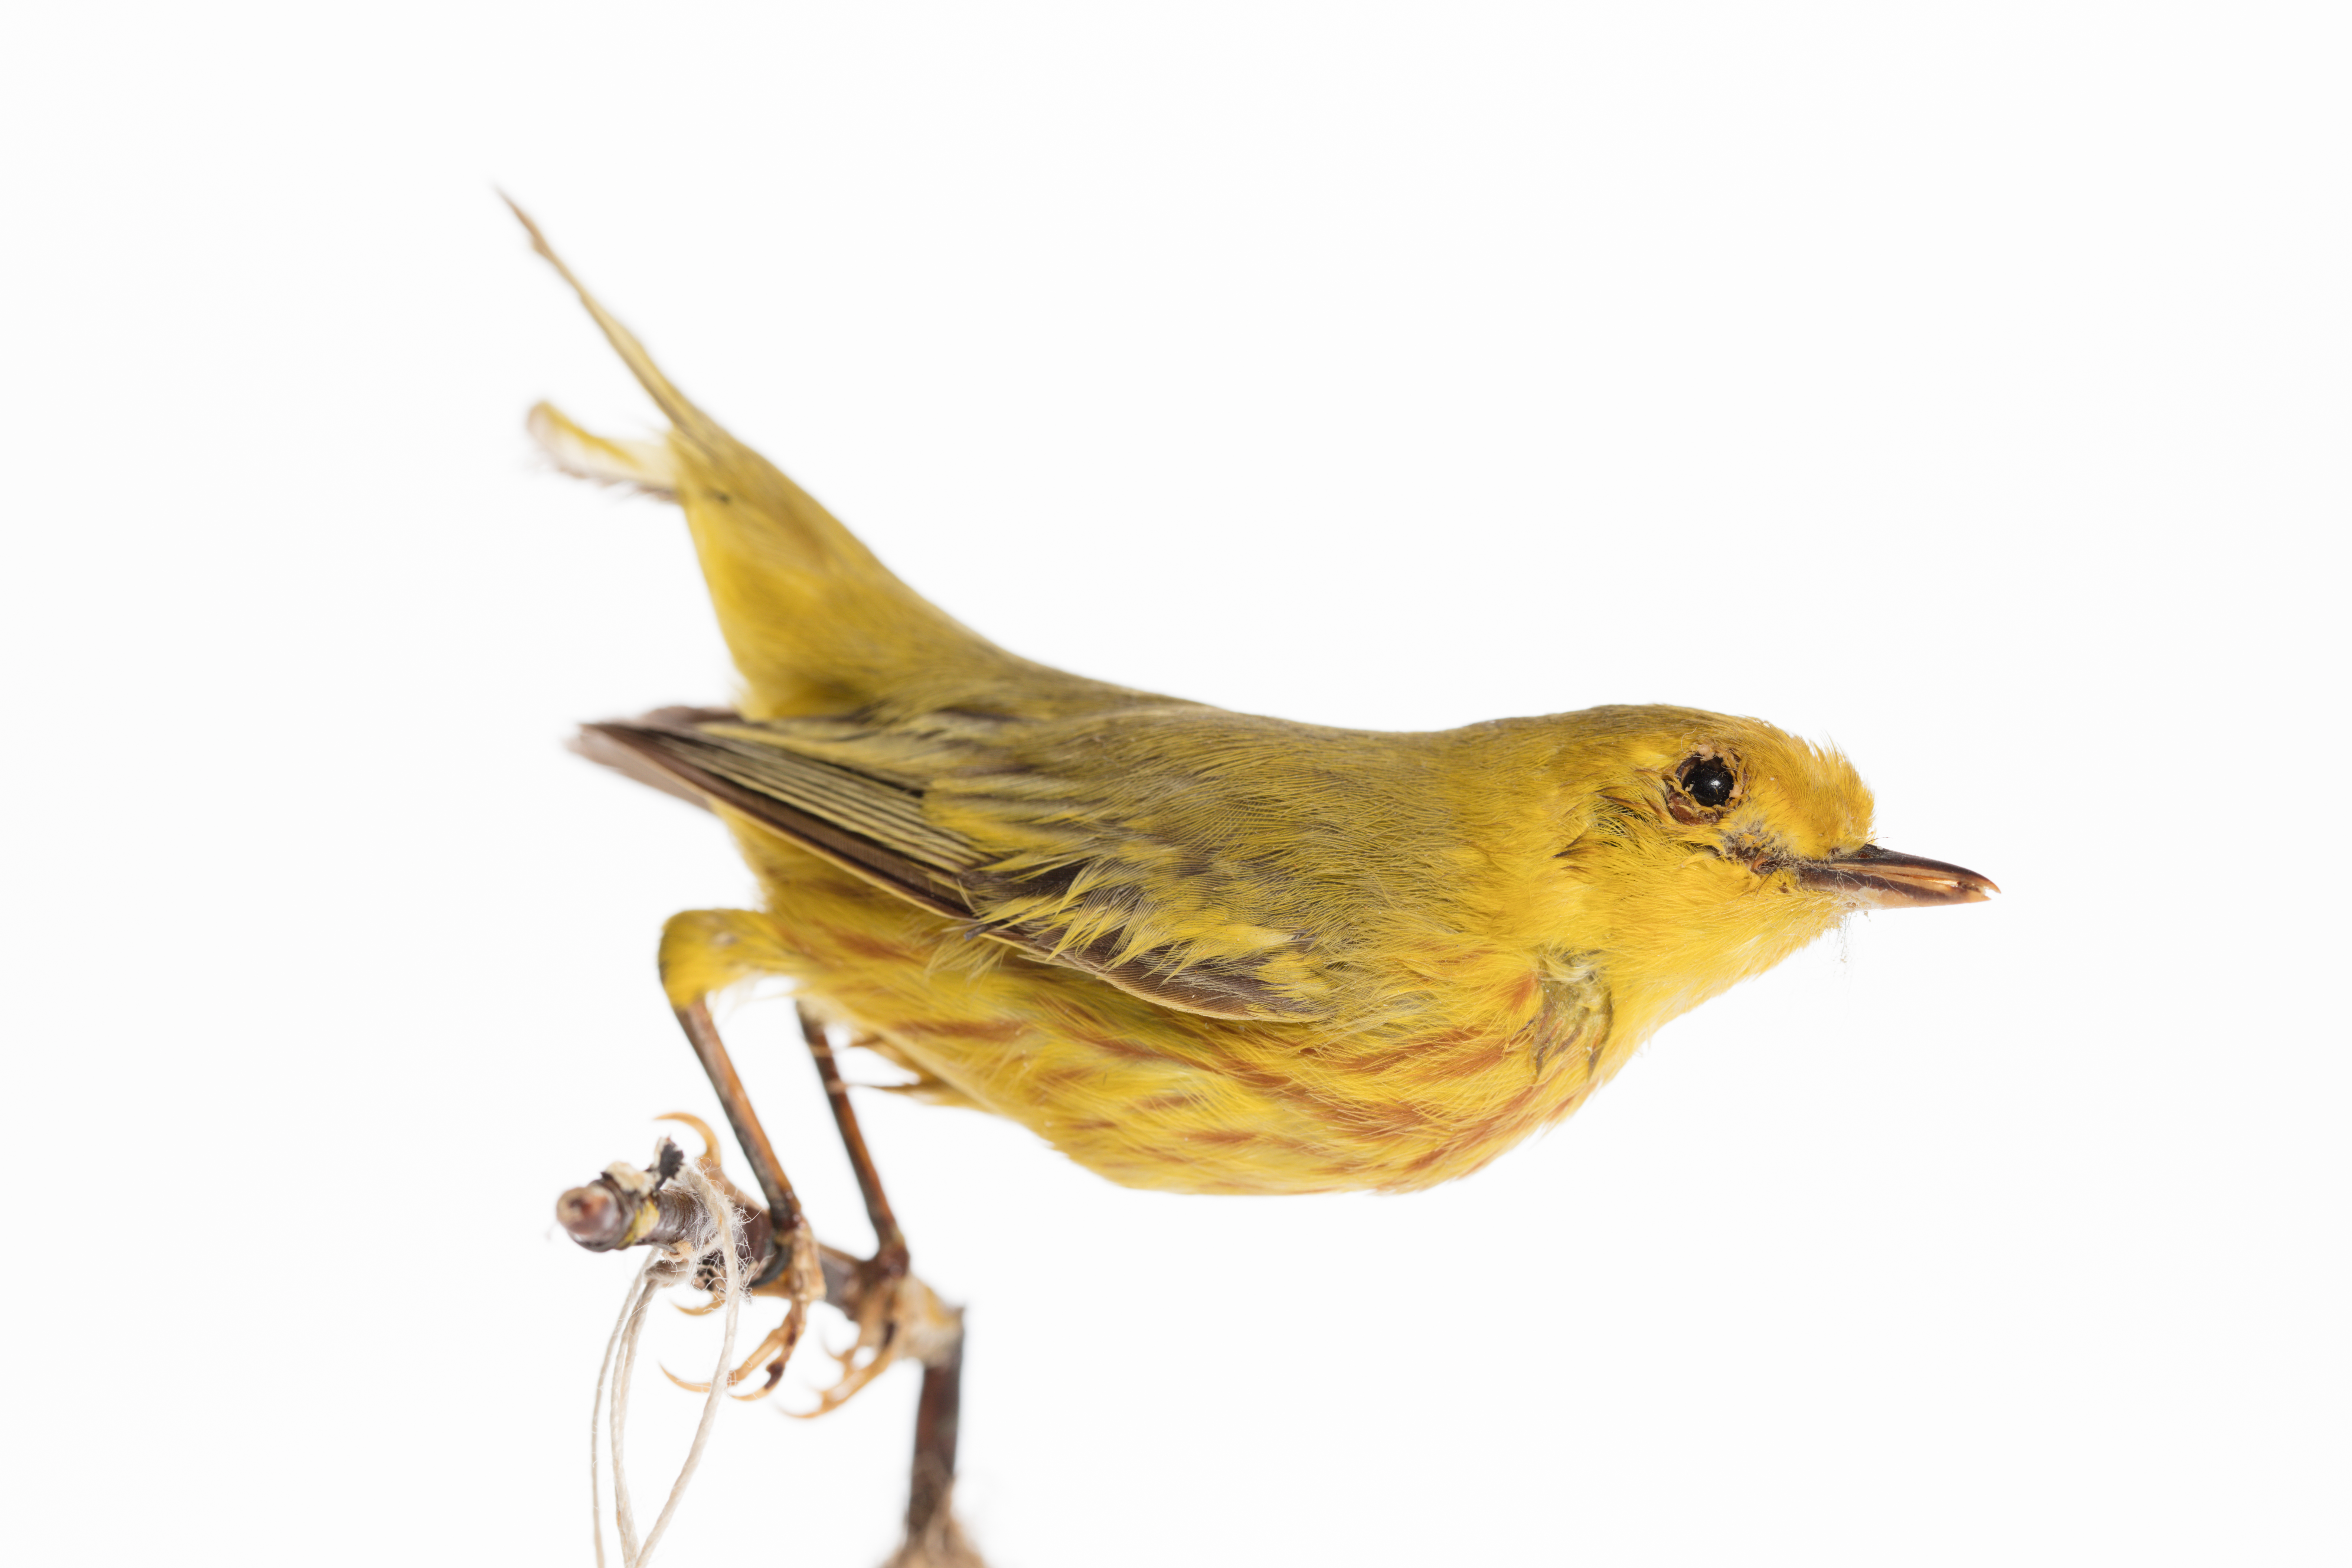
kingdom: Animalia
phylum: Chordata
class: Aves
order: Passeriformes
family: Parulidae
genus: Setophaga
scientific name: Setophaga petechia
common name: Yellow warbler
